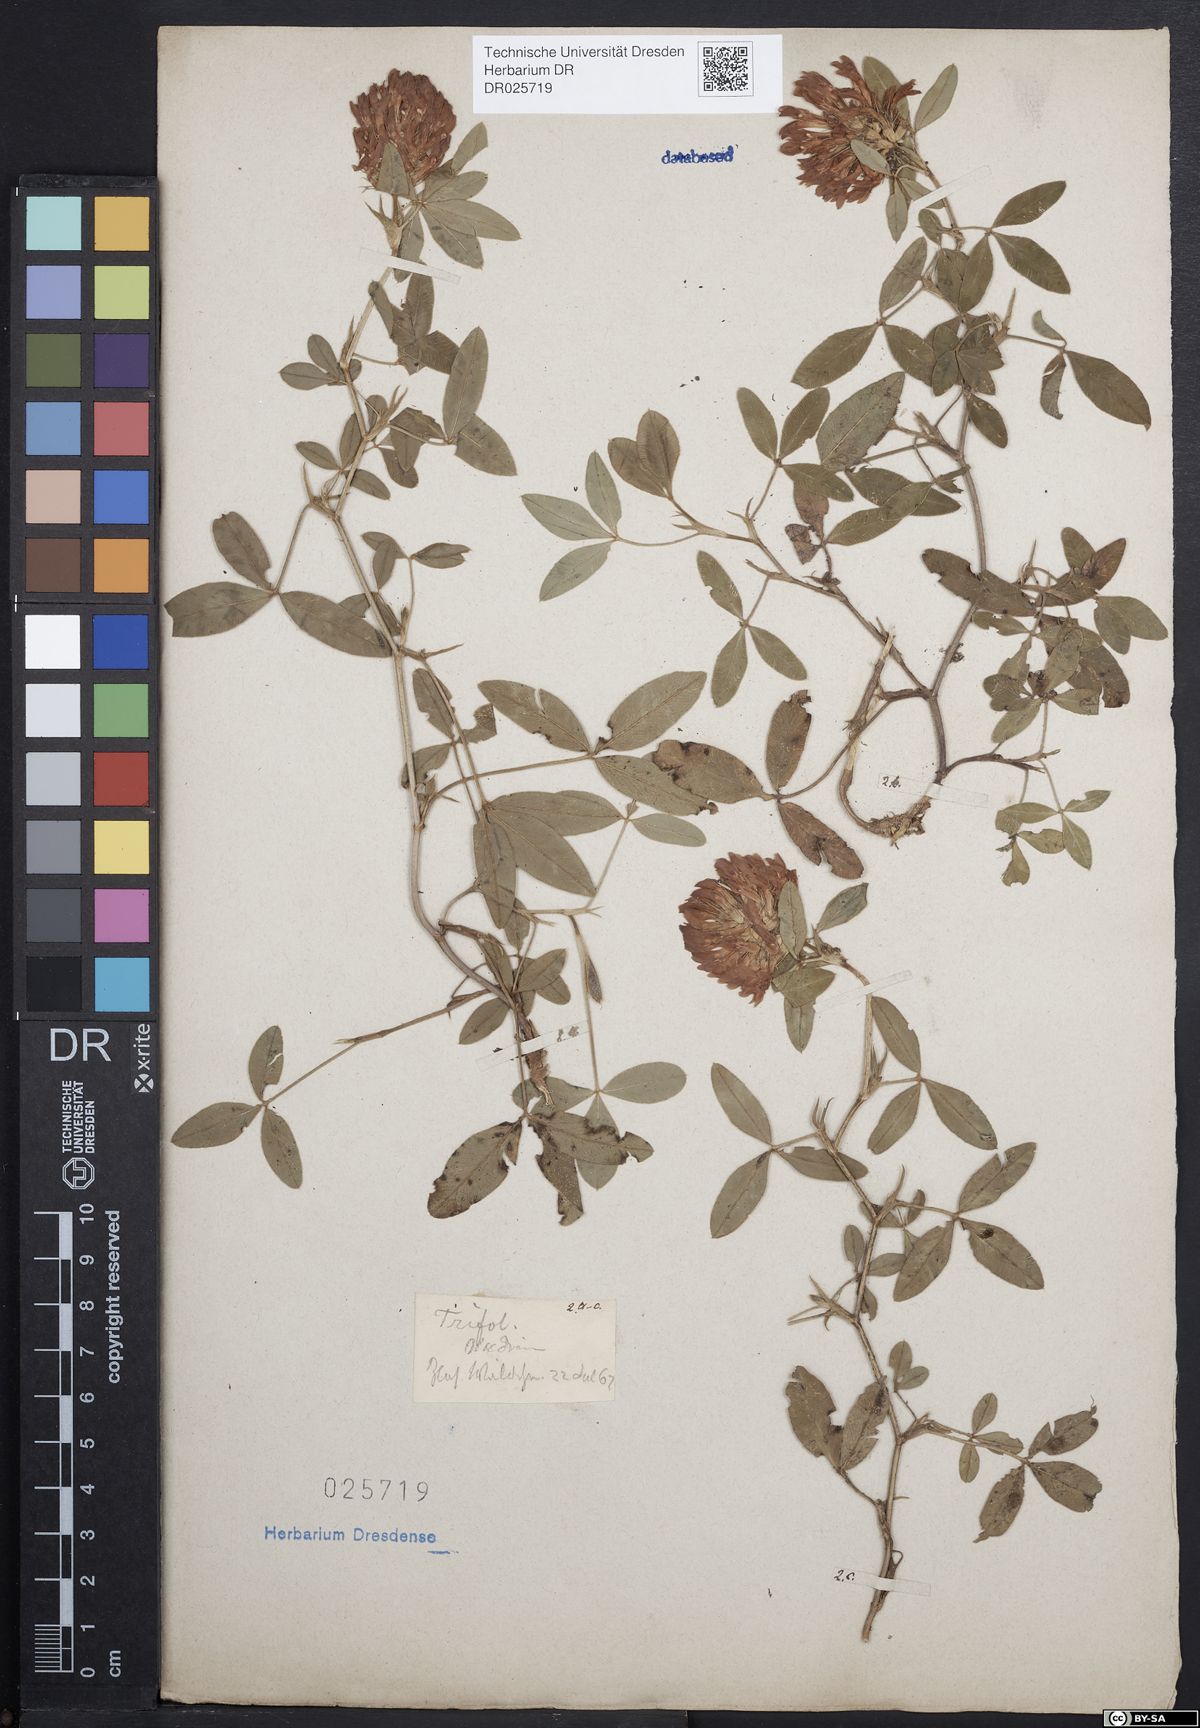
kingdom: Plantae
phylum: Tracheophyta
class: Magnoliopsida
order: Fabales
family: Fabaceae
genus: Trifolium
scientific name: Trifolium medium
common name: Zigzag clover
